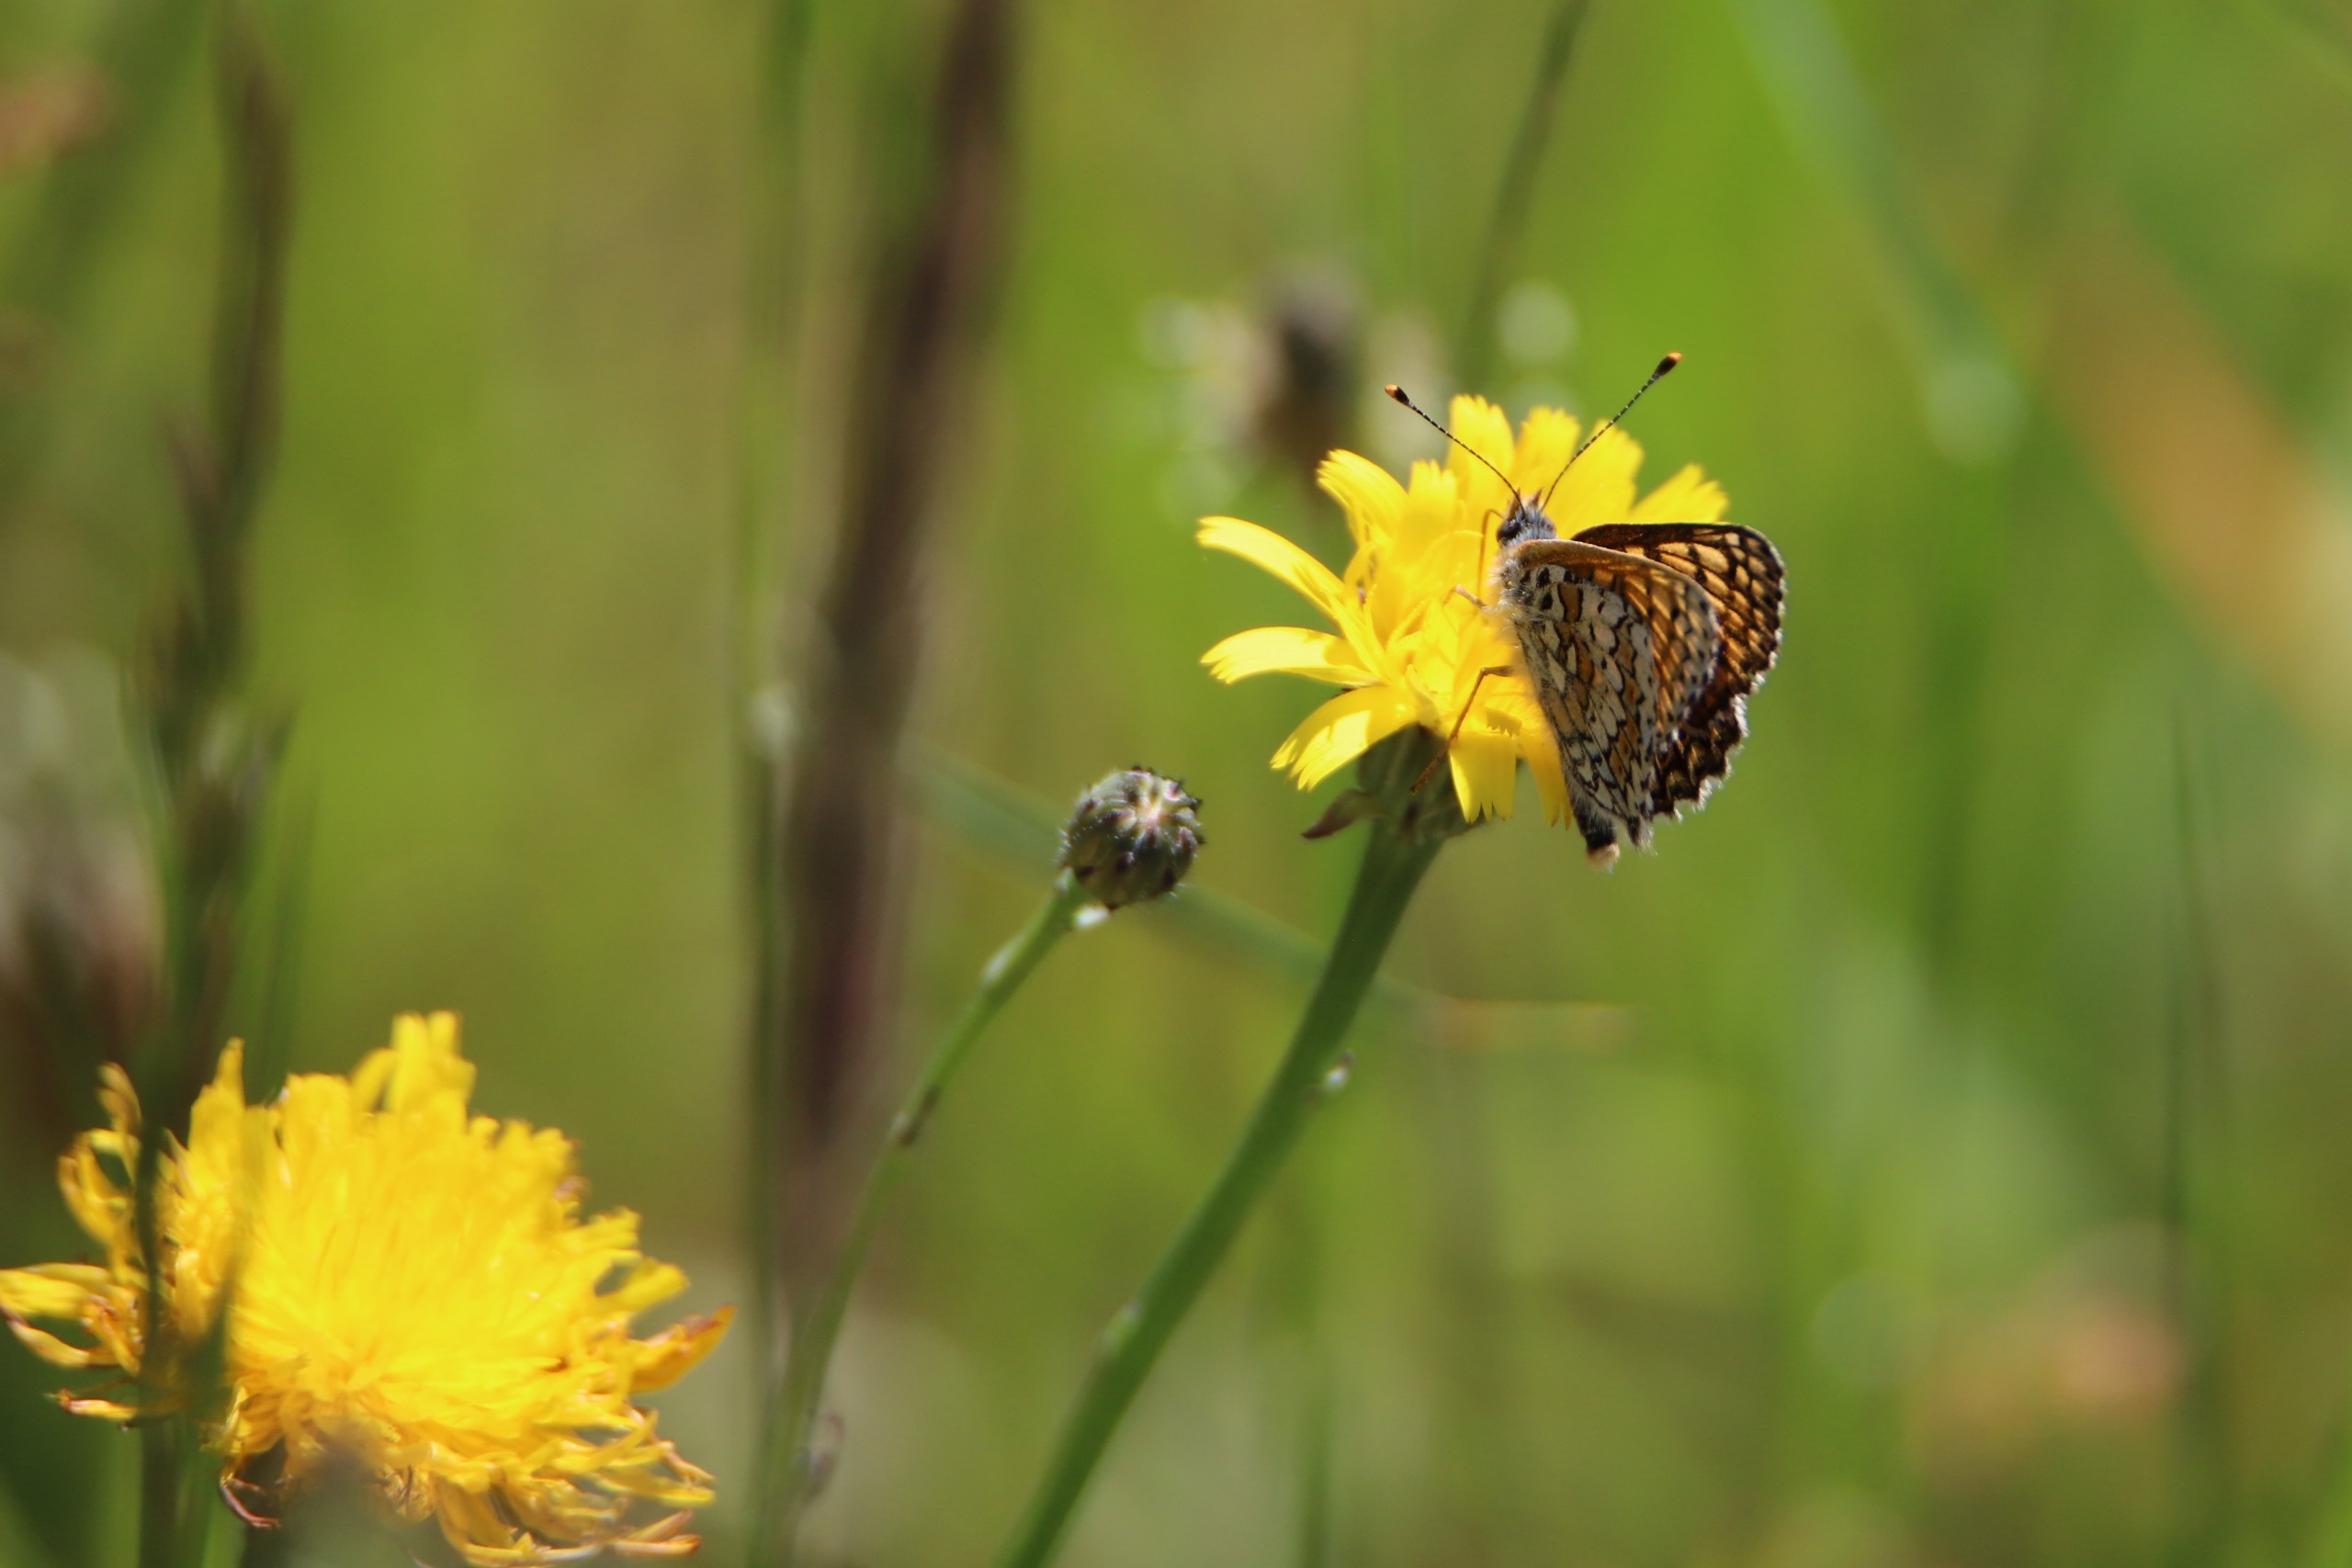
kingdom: Animalia
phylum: Arthropoda
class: Insecta
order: Lepidoptera
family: Nymphalidae
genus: Melitaea
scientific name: Melitaea cinxia
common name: Okkergul pletvinge
